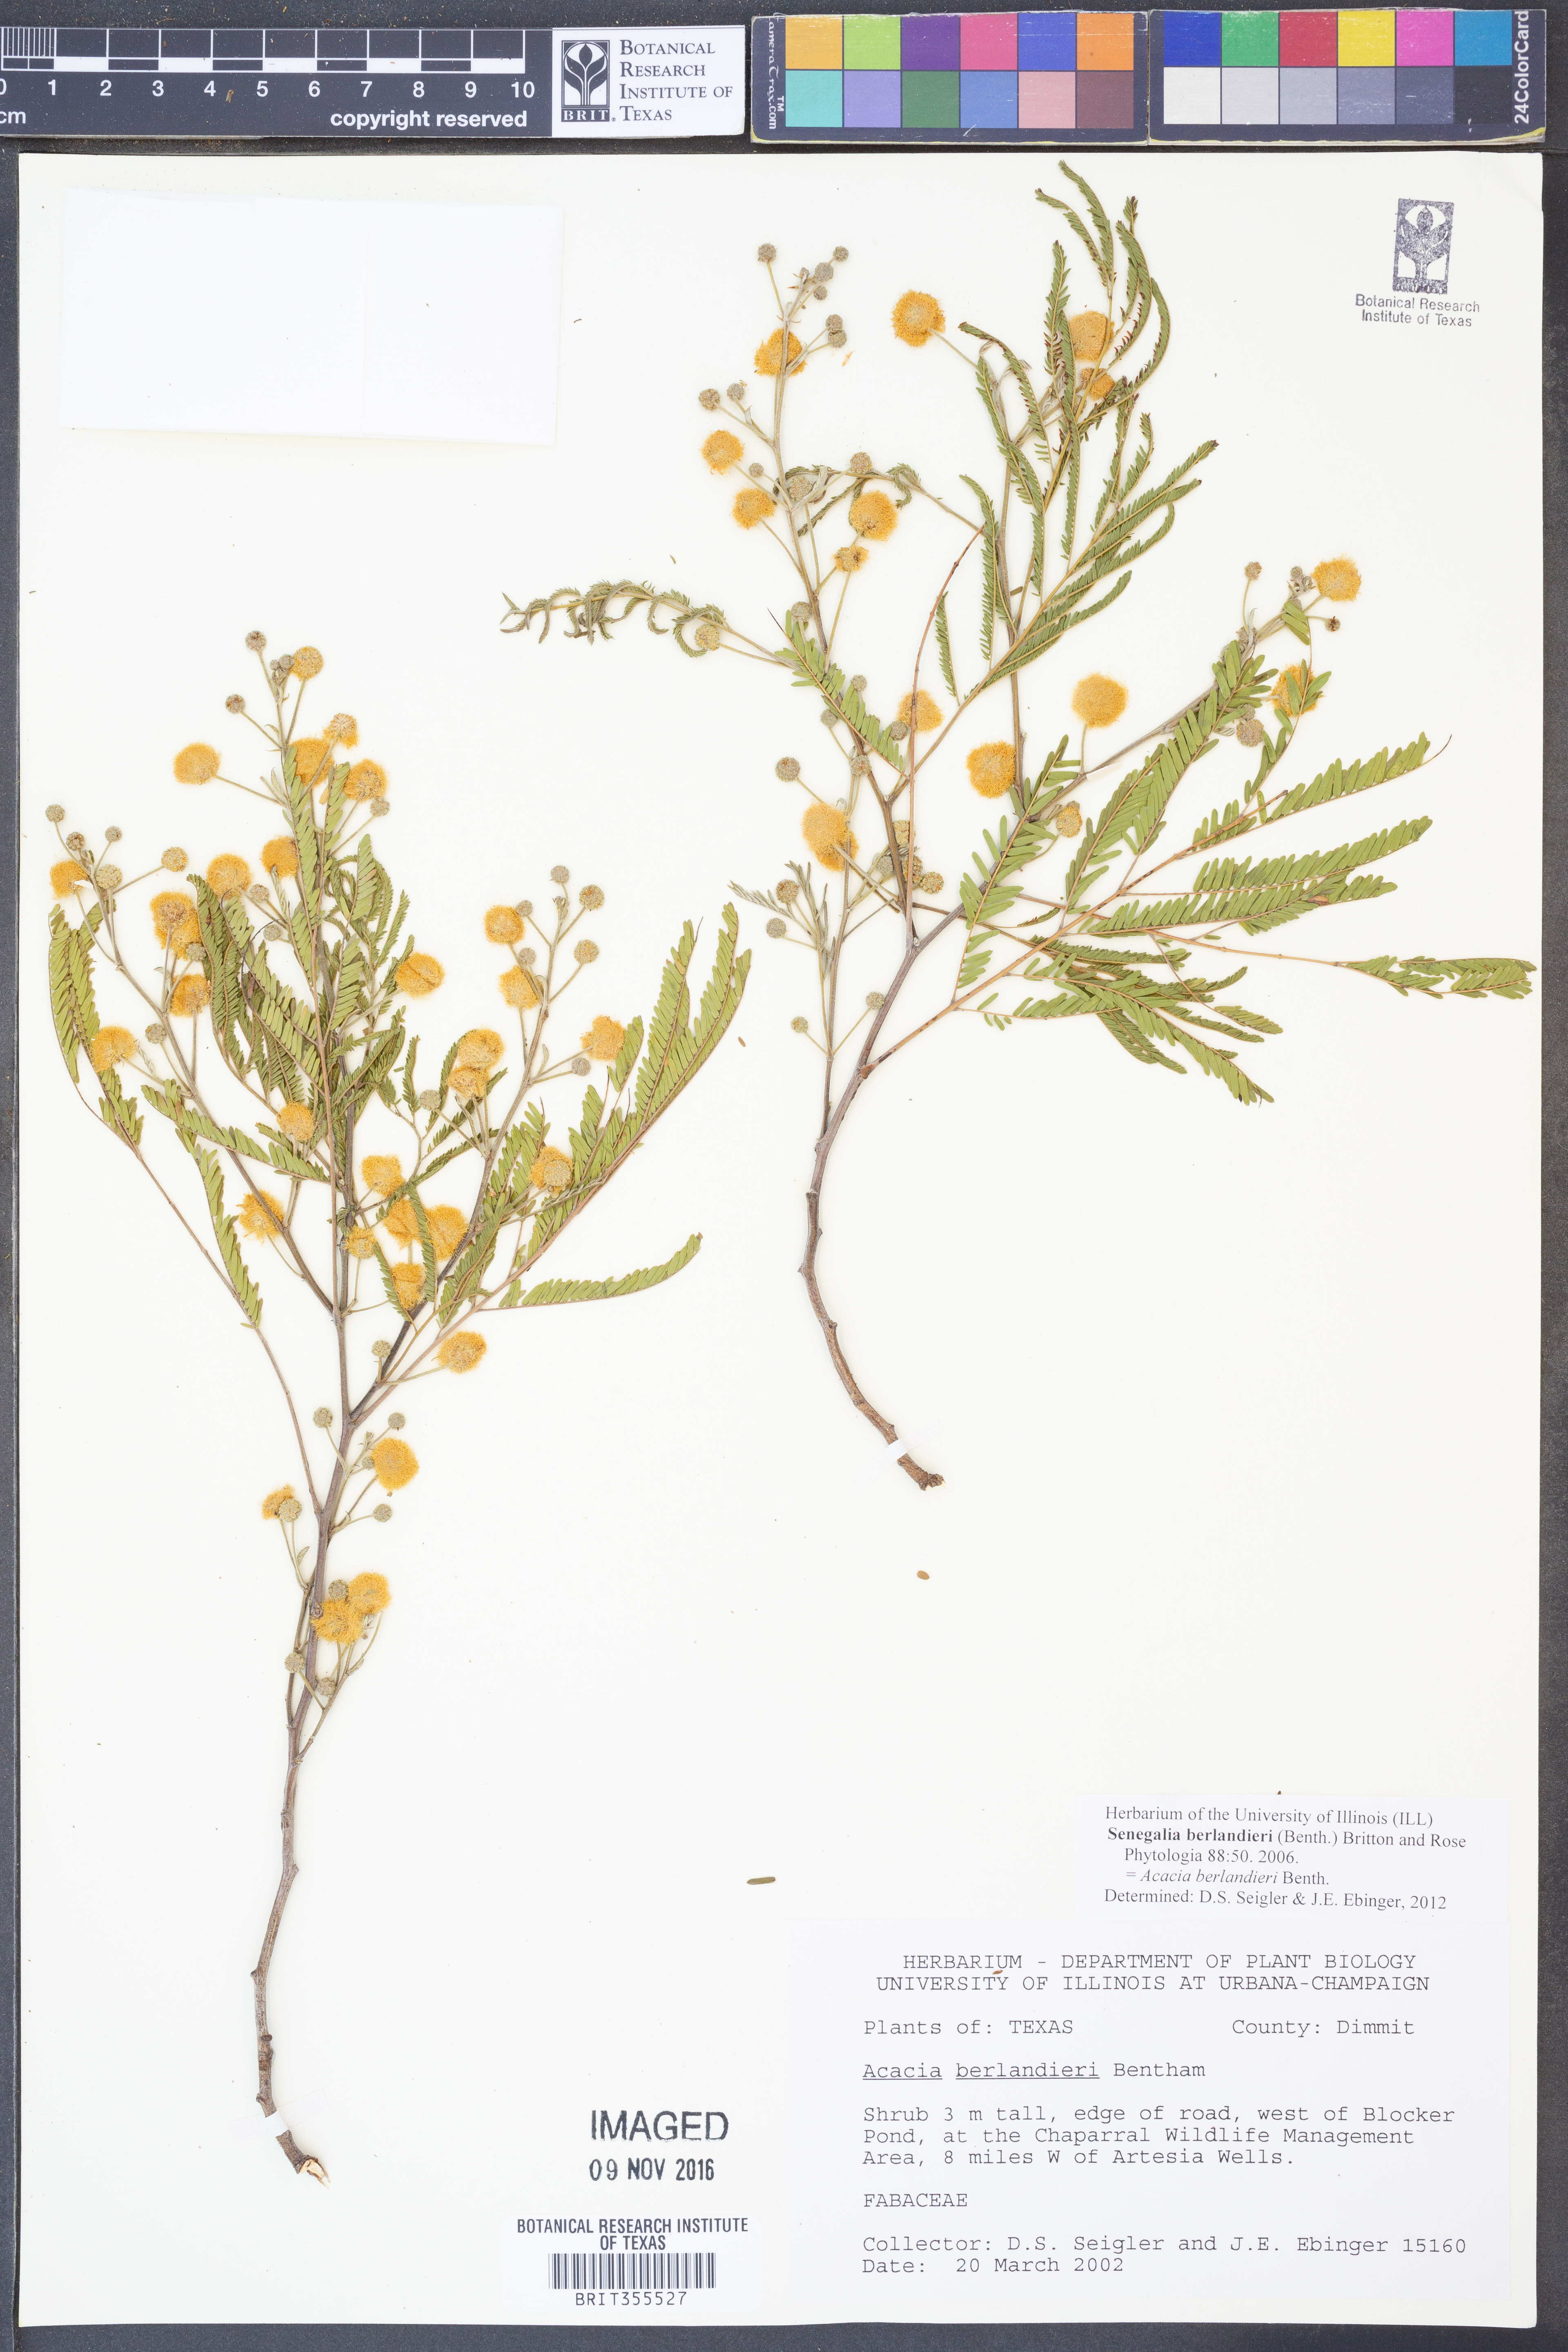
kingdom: Plantae
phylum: Tracheophyta
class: Magnoliopsida
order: Fabales
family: Fabaceae
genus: Senegalia
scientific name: Senegalia berlandieri
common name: Berlandier acacia
